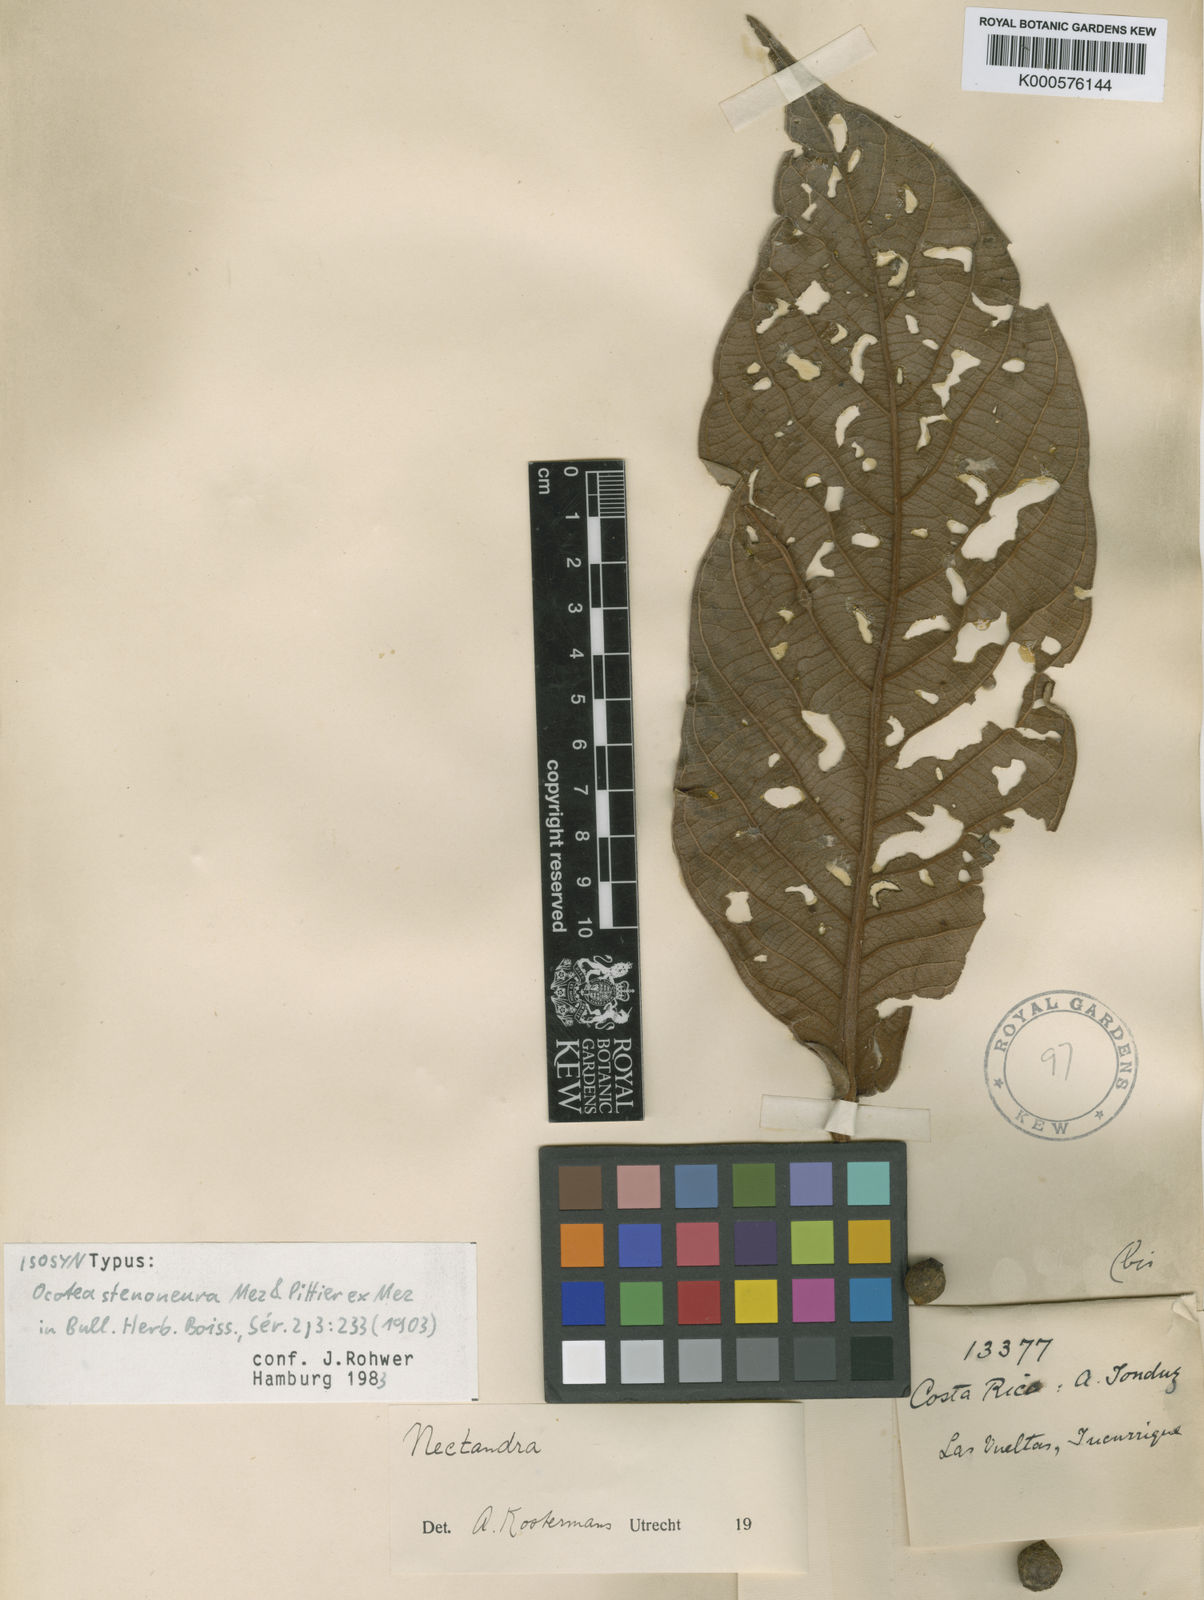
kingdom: Plantae
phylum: Tracheophyta
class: Magnoliopsida
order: Laurales
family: Lauraceae
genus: Ocotea
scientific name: Ocotea stenoneura
